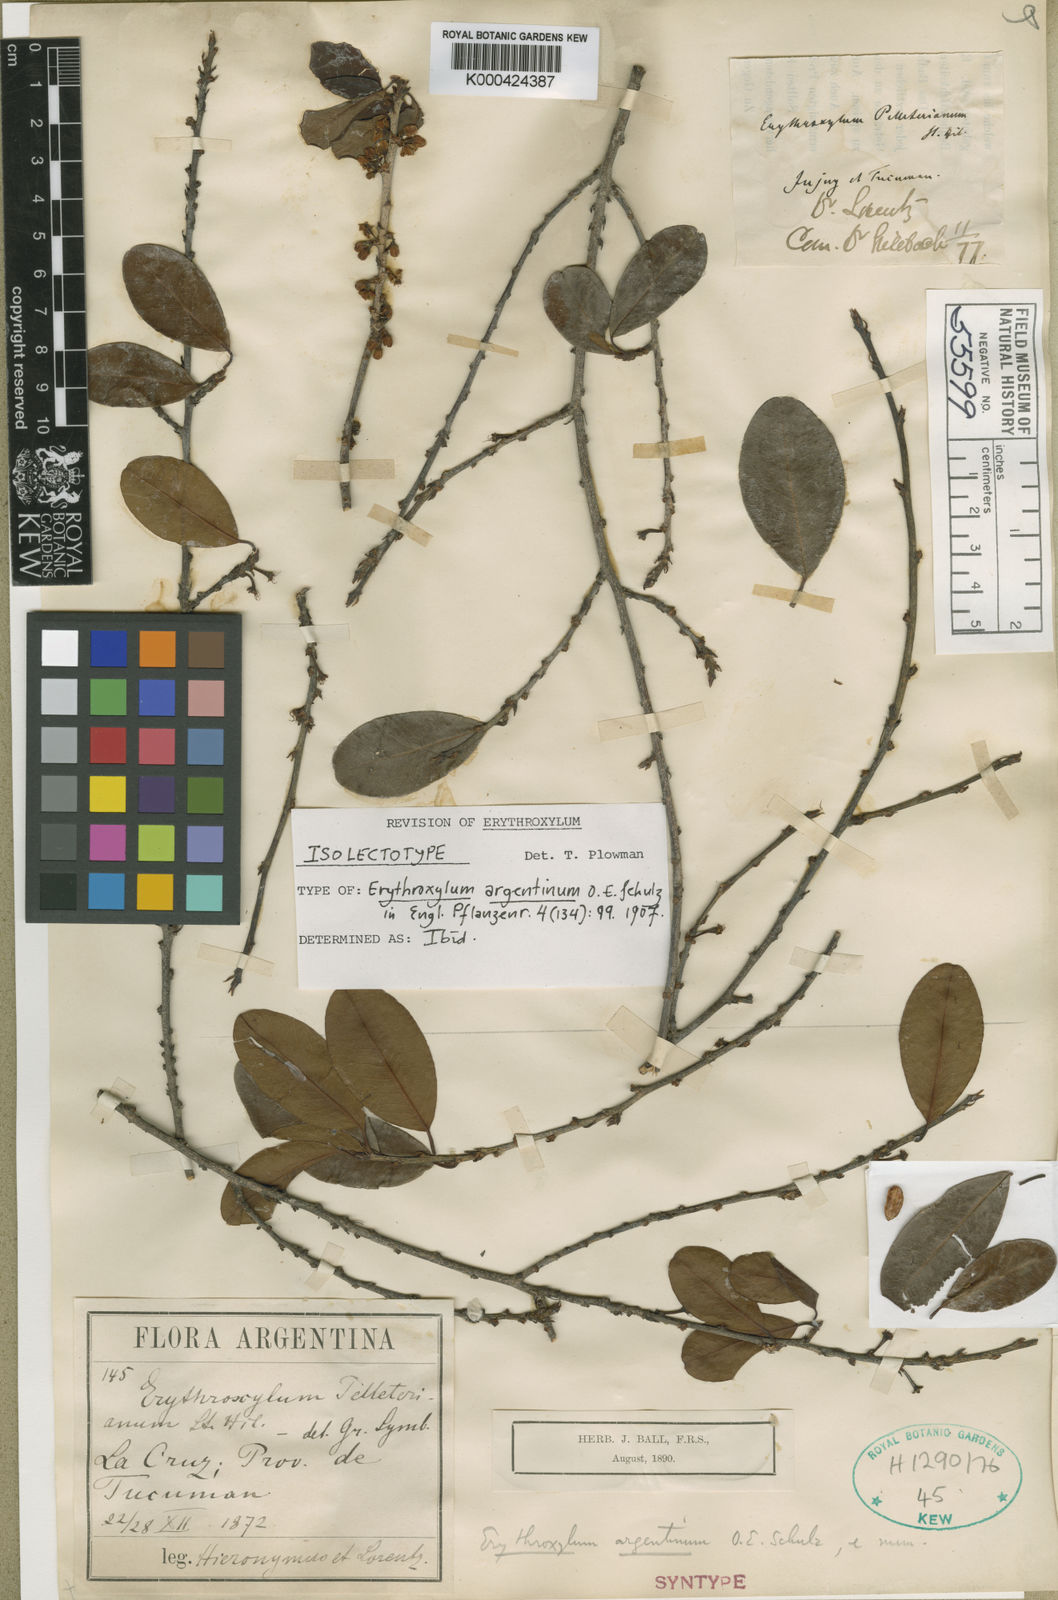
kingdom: Plantae
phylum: Tracheophyta
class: Magnoliopsida
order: Malpighiales
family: Erythroxylaceae
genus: Erythroxylum
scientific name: Erythroxylum argentinum
